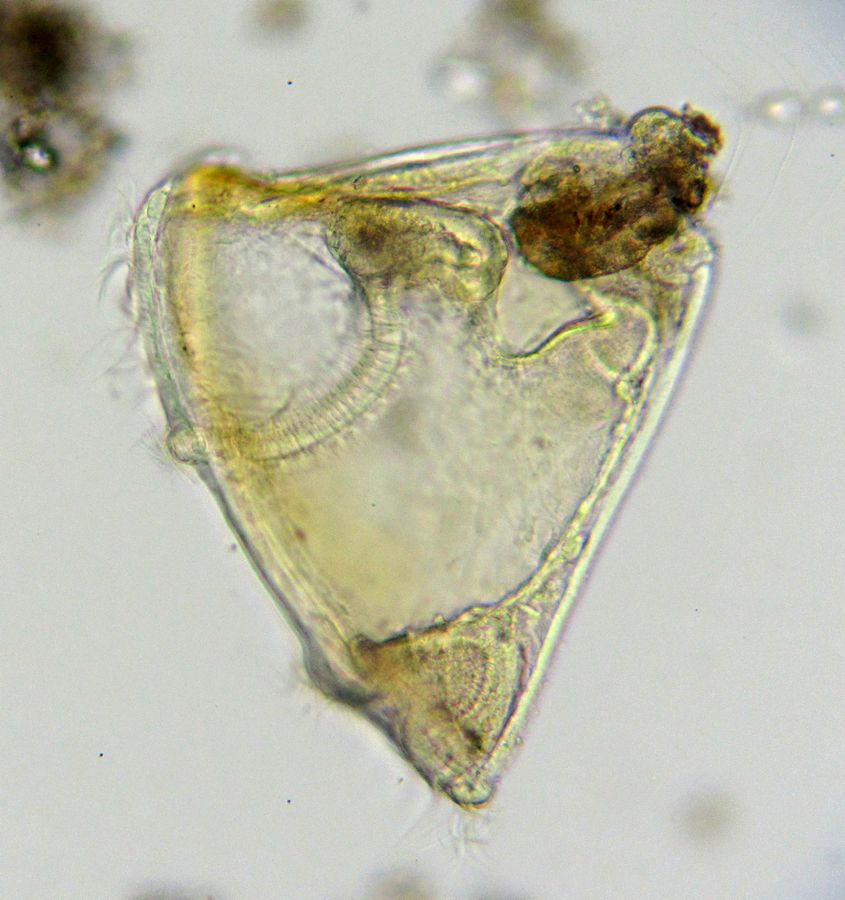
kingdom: Animalia
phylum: Bryozoa
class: Gymnolaemata
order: Cheilostomatida
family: Electridae
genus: Electra
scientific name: Electra pilosa
